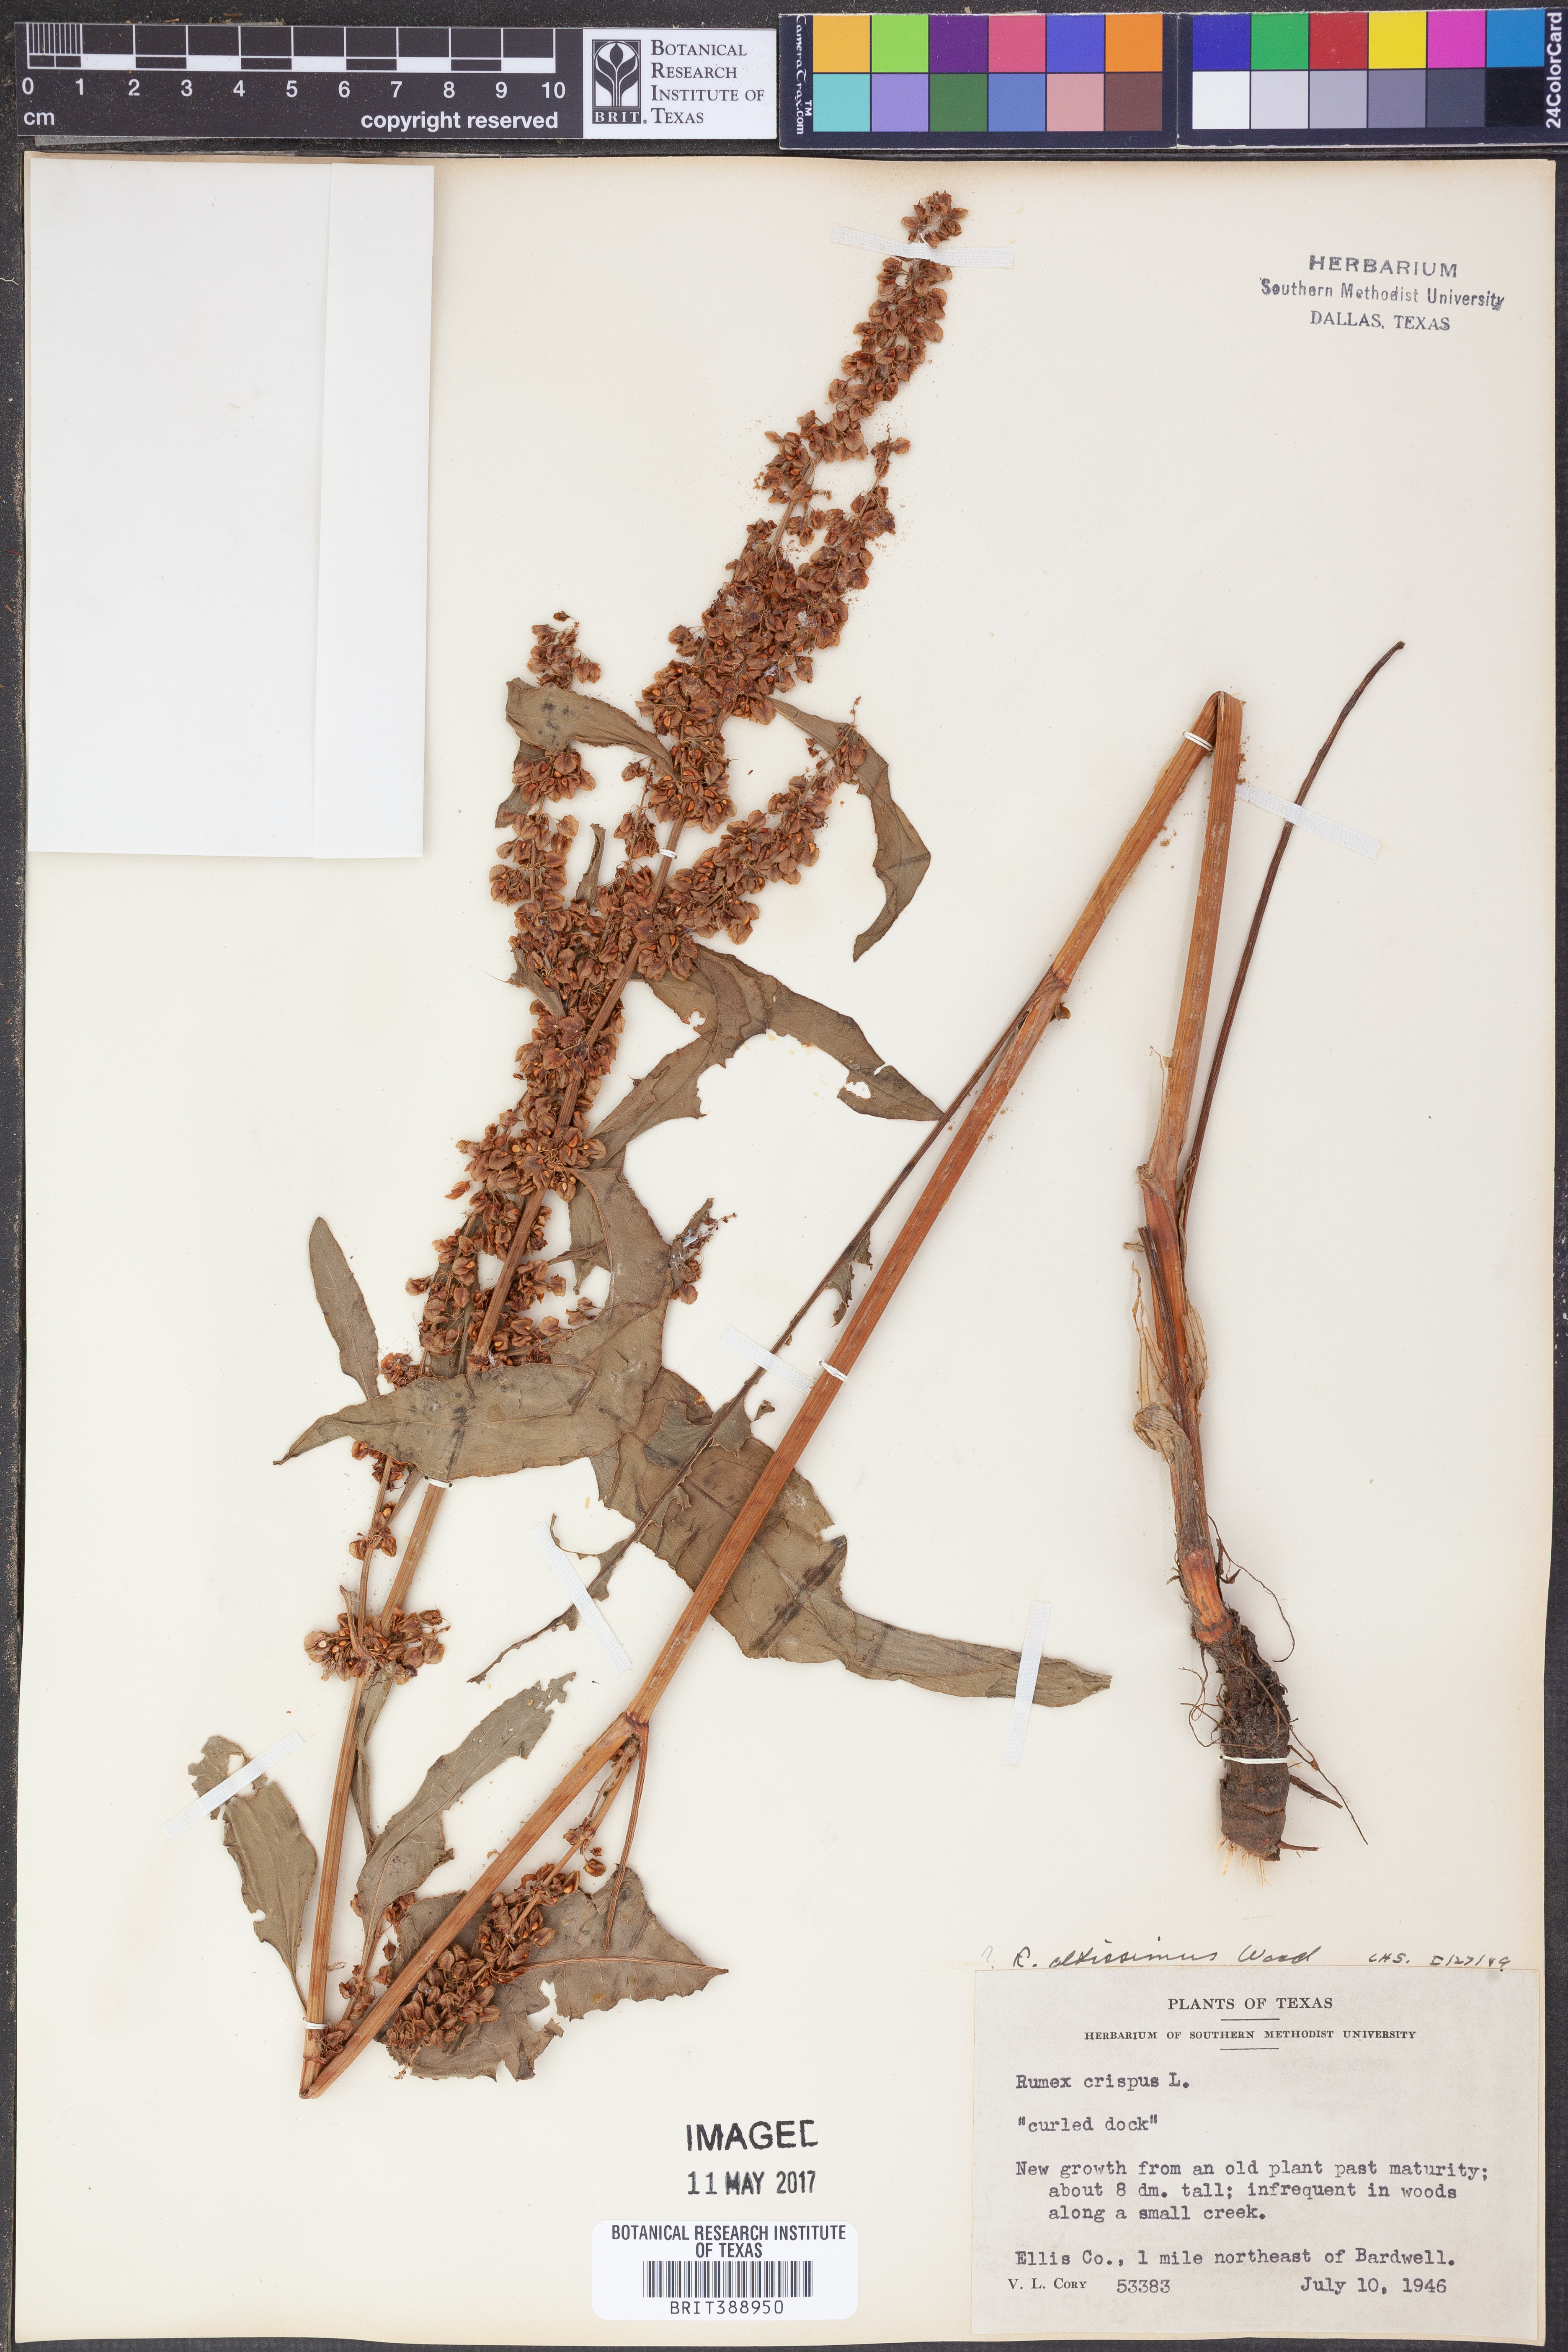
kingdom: Plantae
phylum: Tracheophyta
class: Magnoliopsida
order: Caryophyllales
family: Polygonaceae
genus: Rumex
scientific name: Rumex altissimus
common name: Smooth dock
